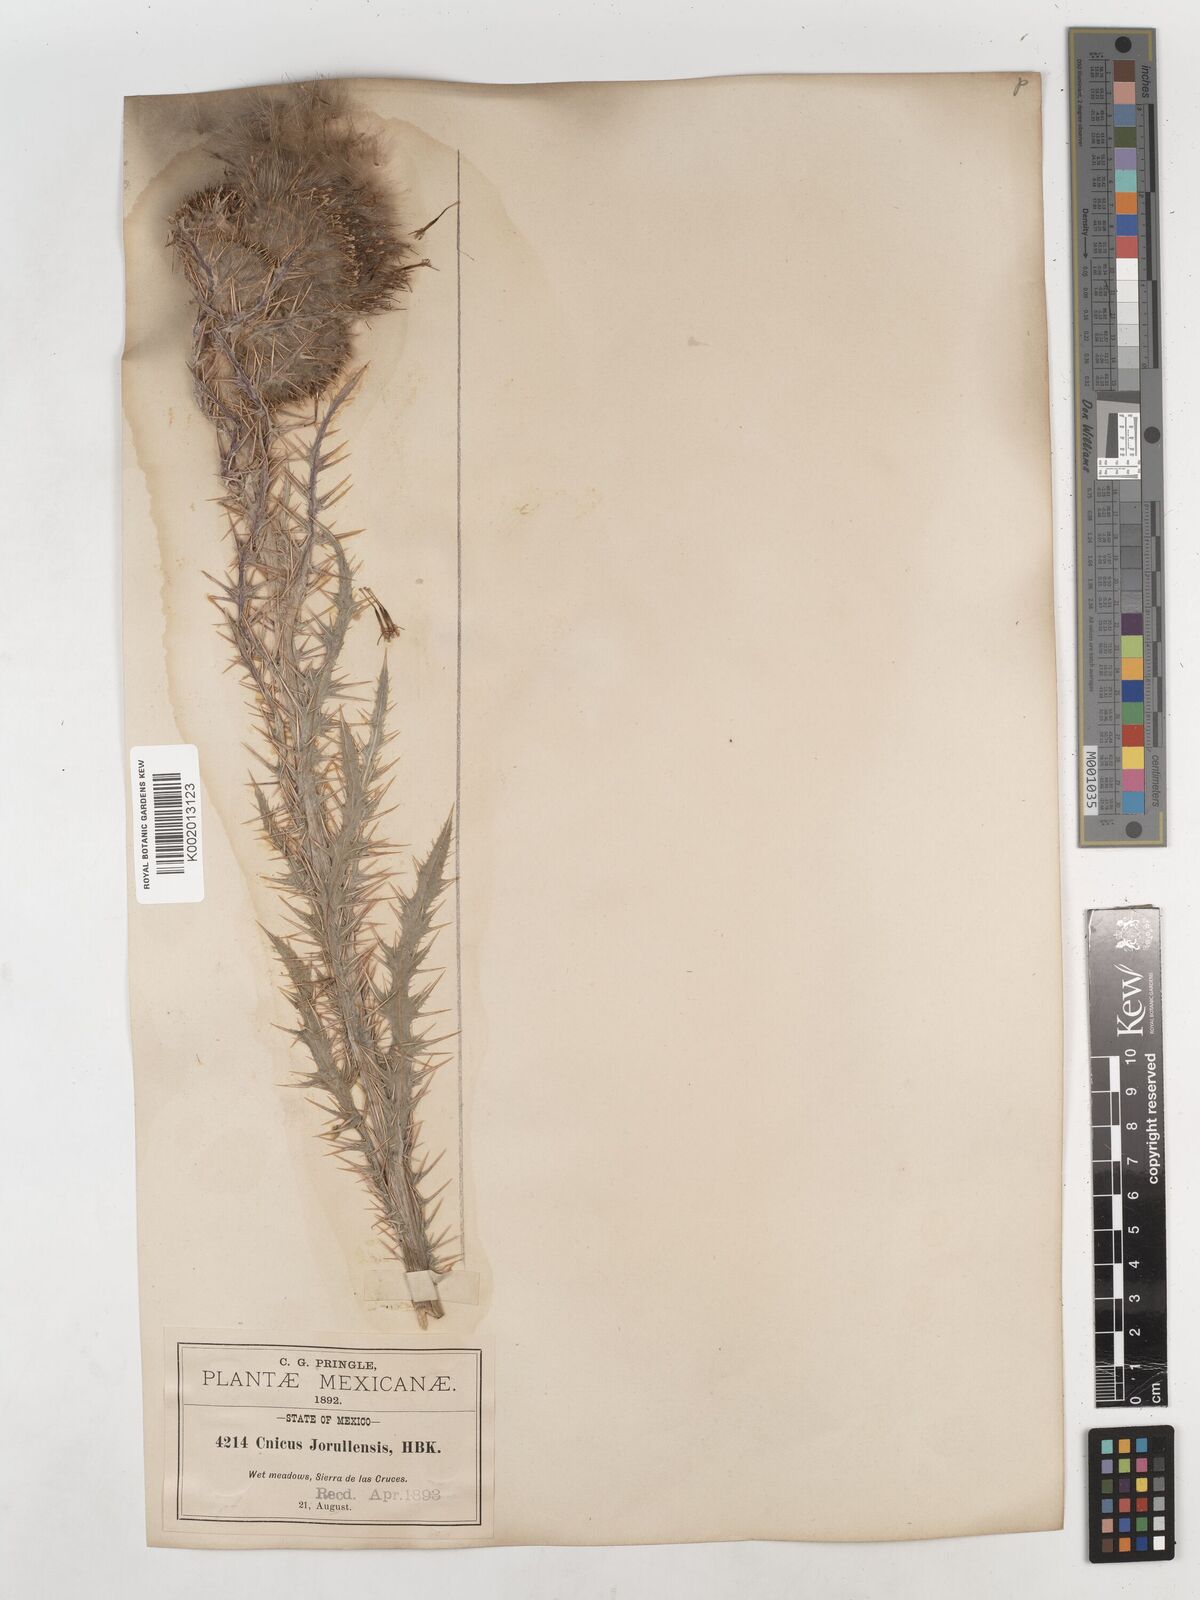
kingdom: Plantae
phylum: Tracheophyta
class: Magnoliopsida
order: Asterales
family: Asteraceae
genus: Cirsium
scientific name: Cirsium nivale
